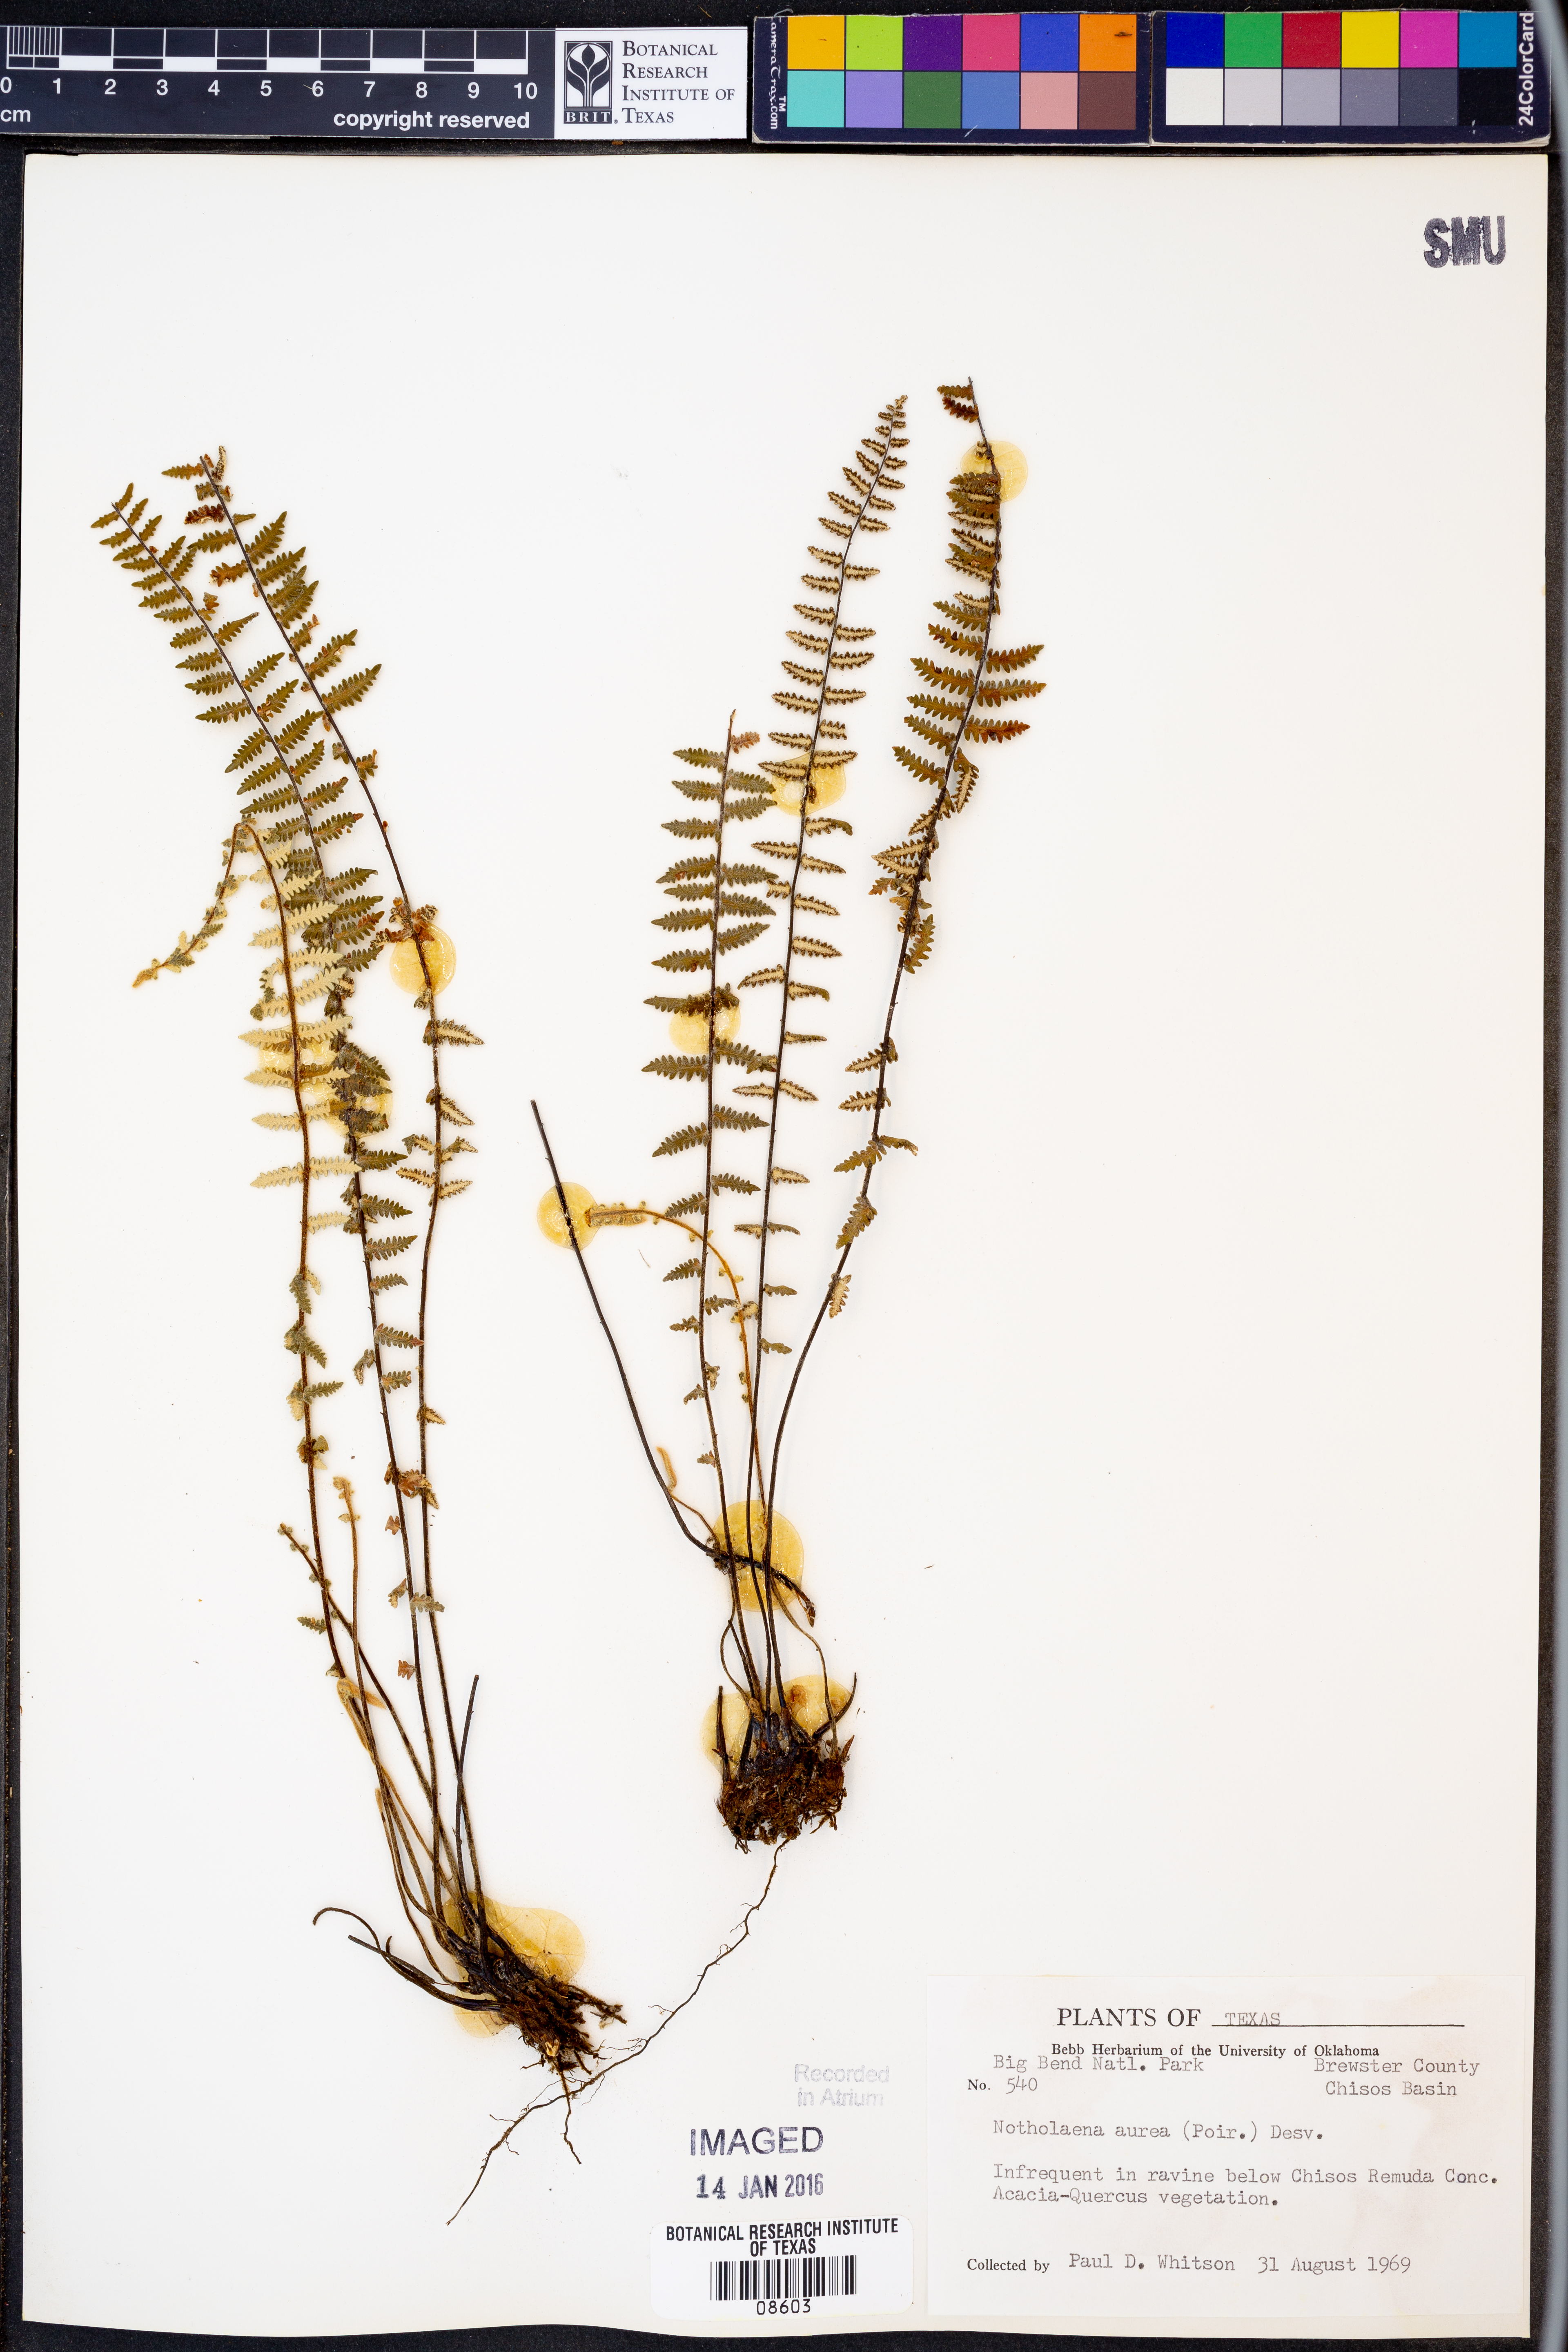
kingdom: Plantae
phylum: Tracheophyta
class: Polypodiopsida
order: Polypodiales
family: Pteridaceae
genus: Myriopteris
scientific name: Myriopteris aurea
